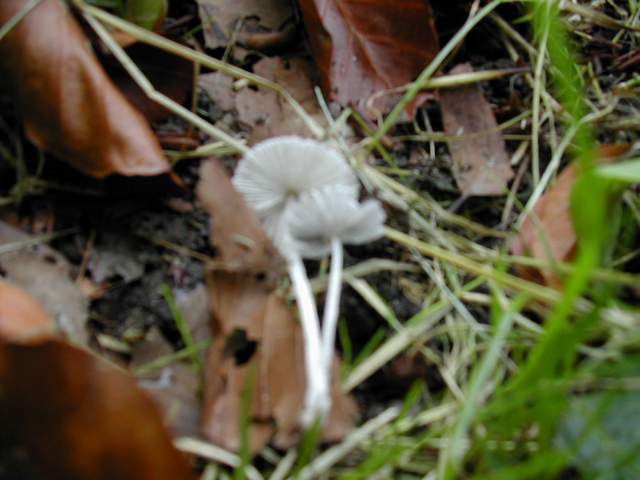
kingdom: Fungi
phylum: Basidiomycota
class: Agaricomycetes
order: Agaricales
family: Psathyrellaceae
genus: Coprinopsis
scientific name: Coprinopsis lagopus
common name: dunstokket blækhat
